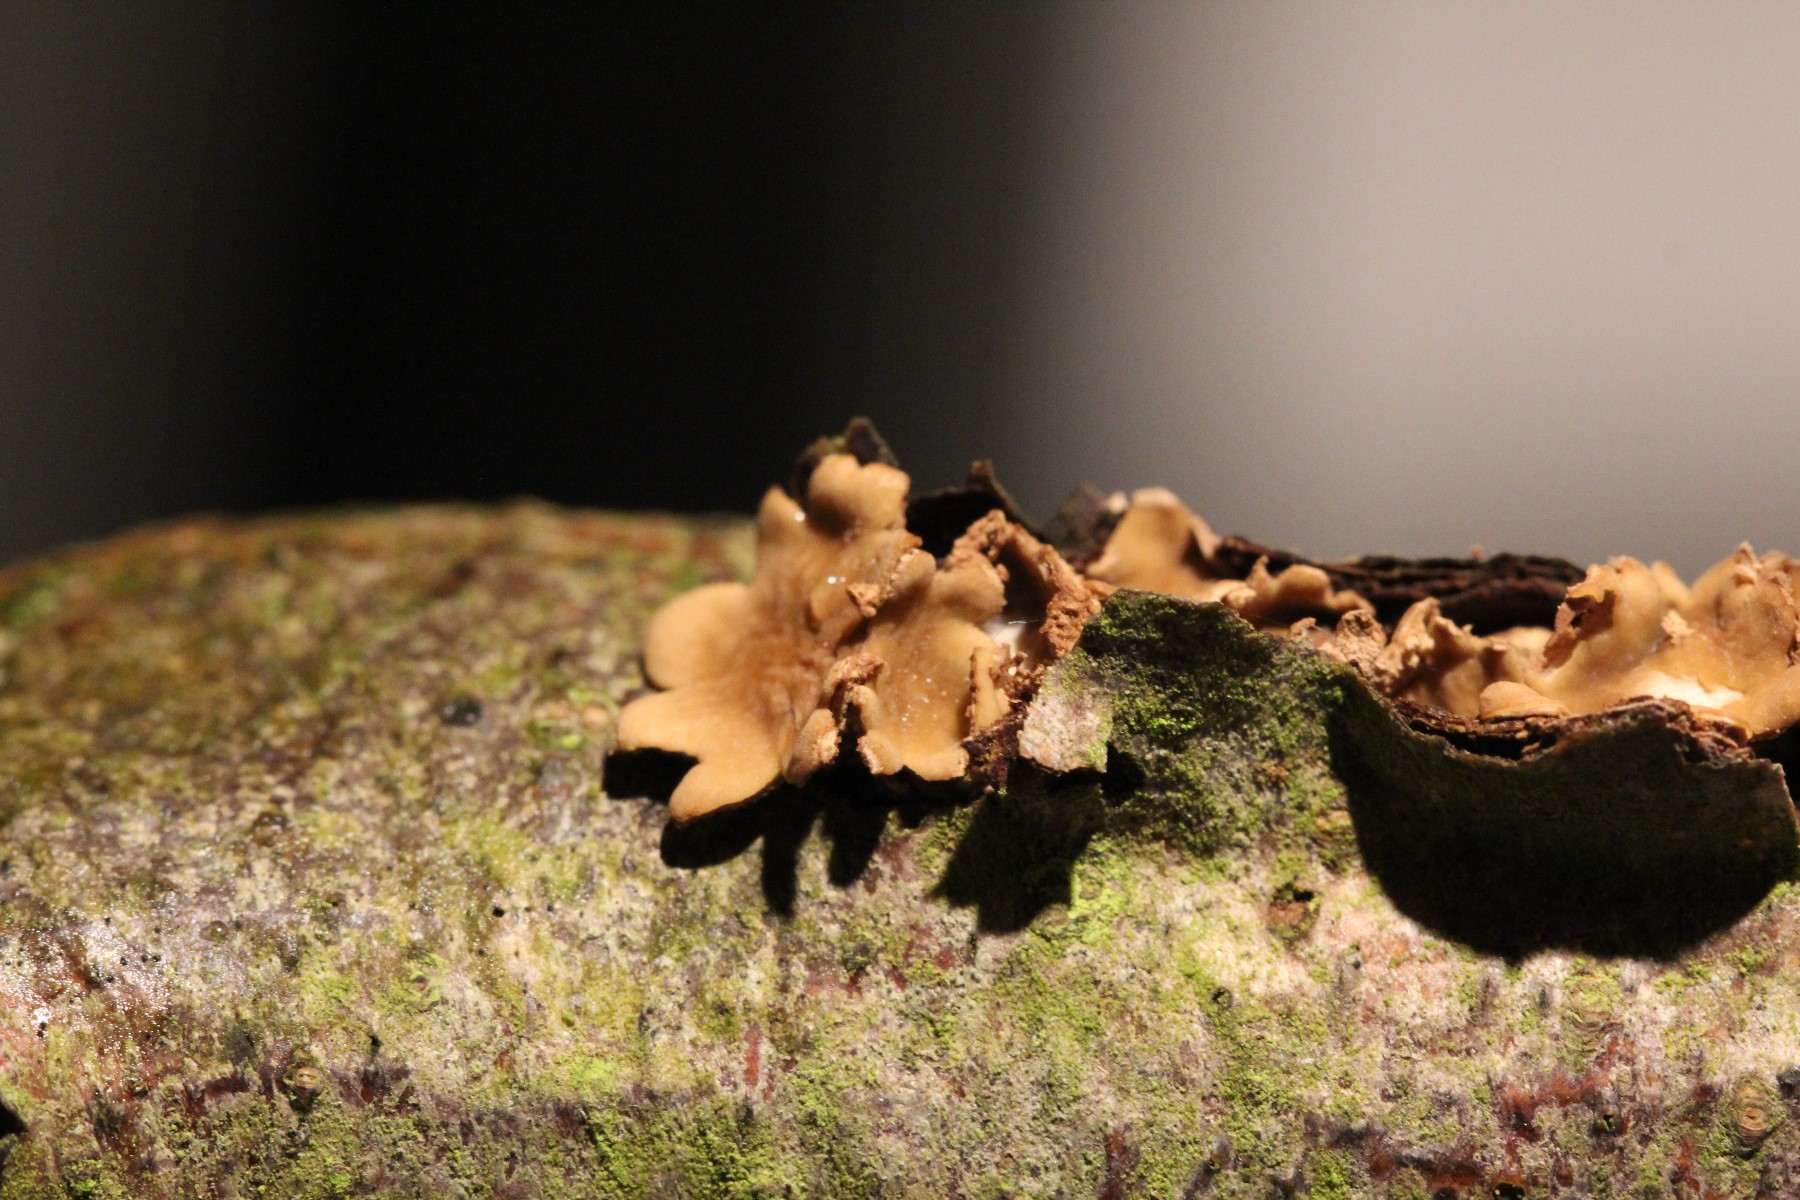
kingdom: Fungi
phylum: Ascomycota
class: Leotiomycetes
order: Helotiales
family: Cenangiaceae
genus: Encoelia
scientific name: Encoelia furfuracea
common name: hassel-læderskive
